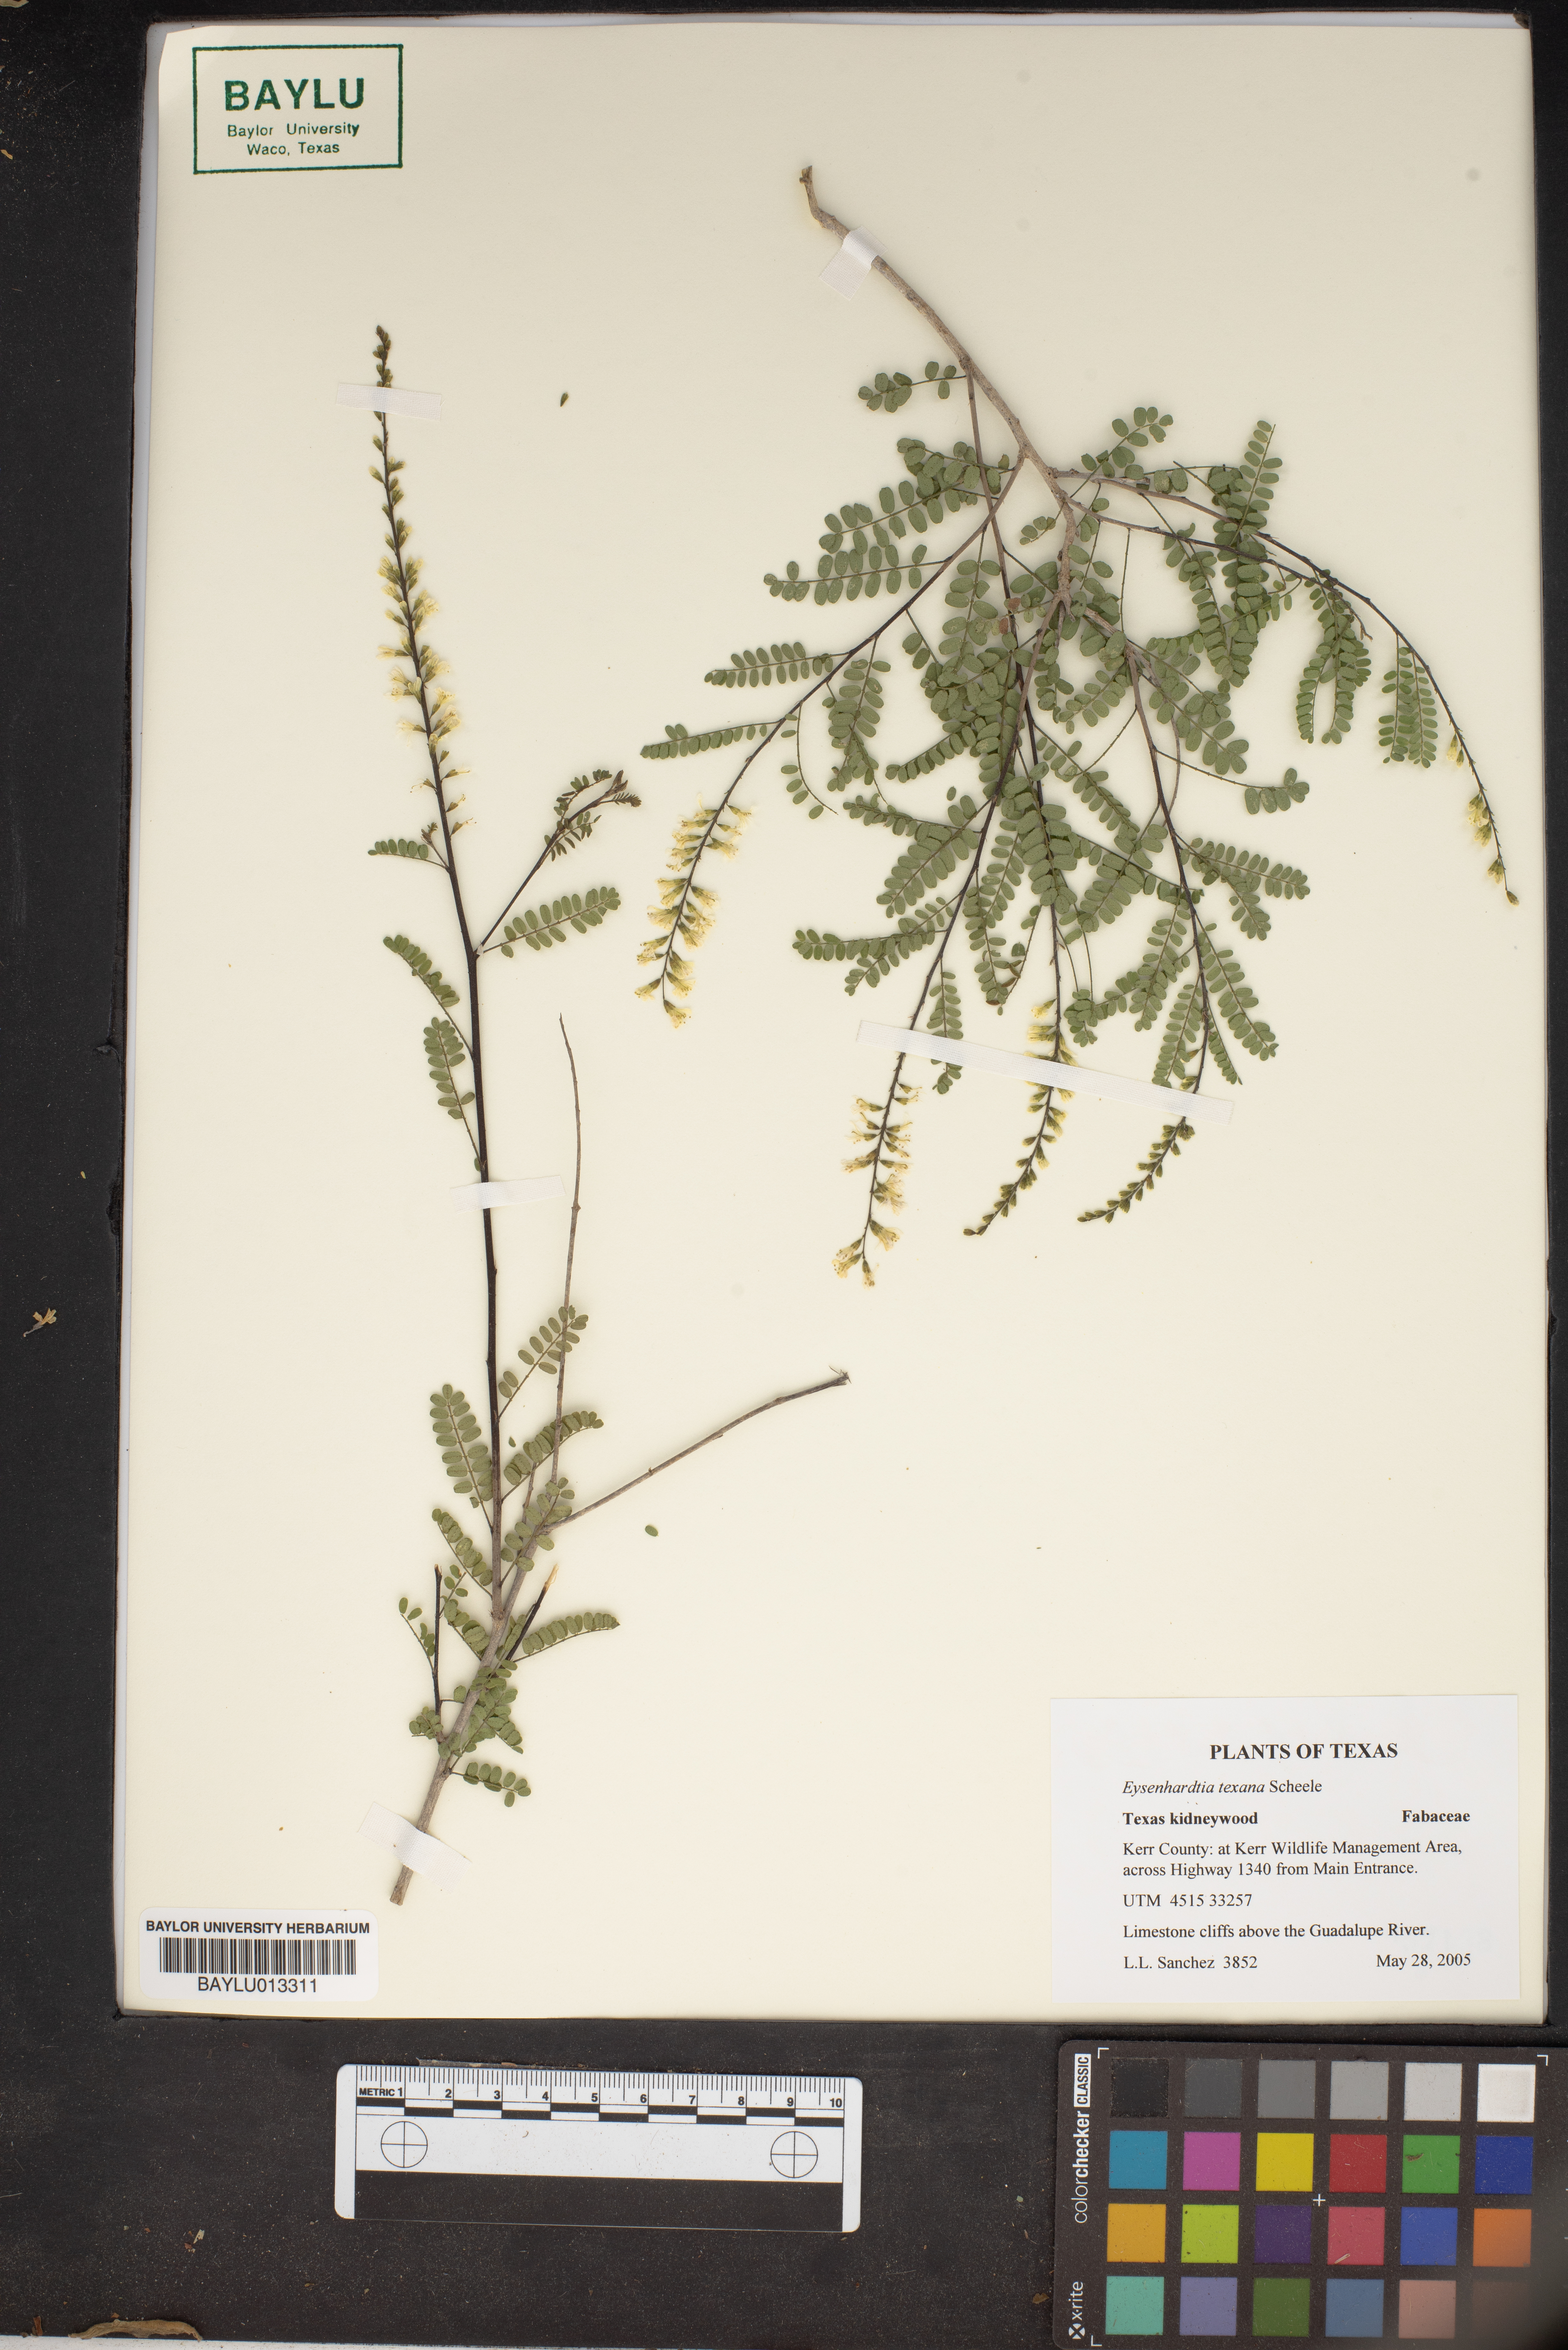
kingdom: Plantae
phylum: Tracheophyta
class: Magnoliopsida
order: Fabales
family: Fabaceae
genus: Eysenhardtia
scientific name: Eysenhardtia texana
